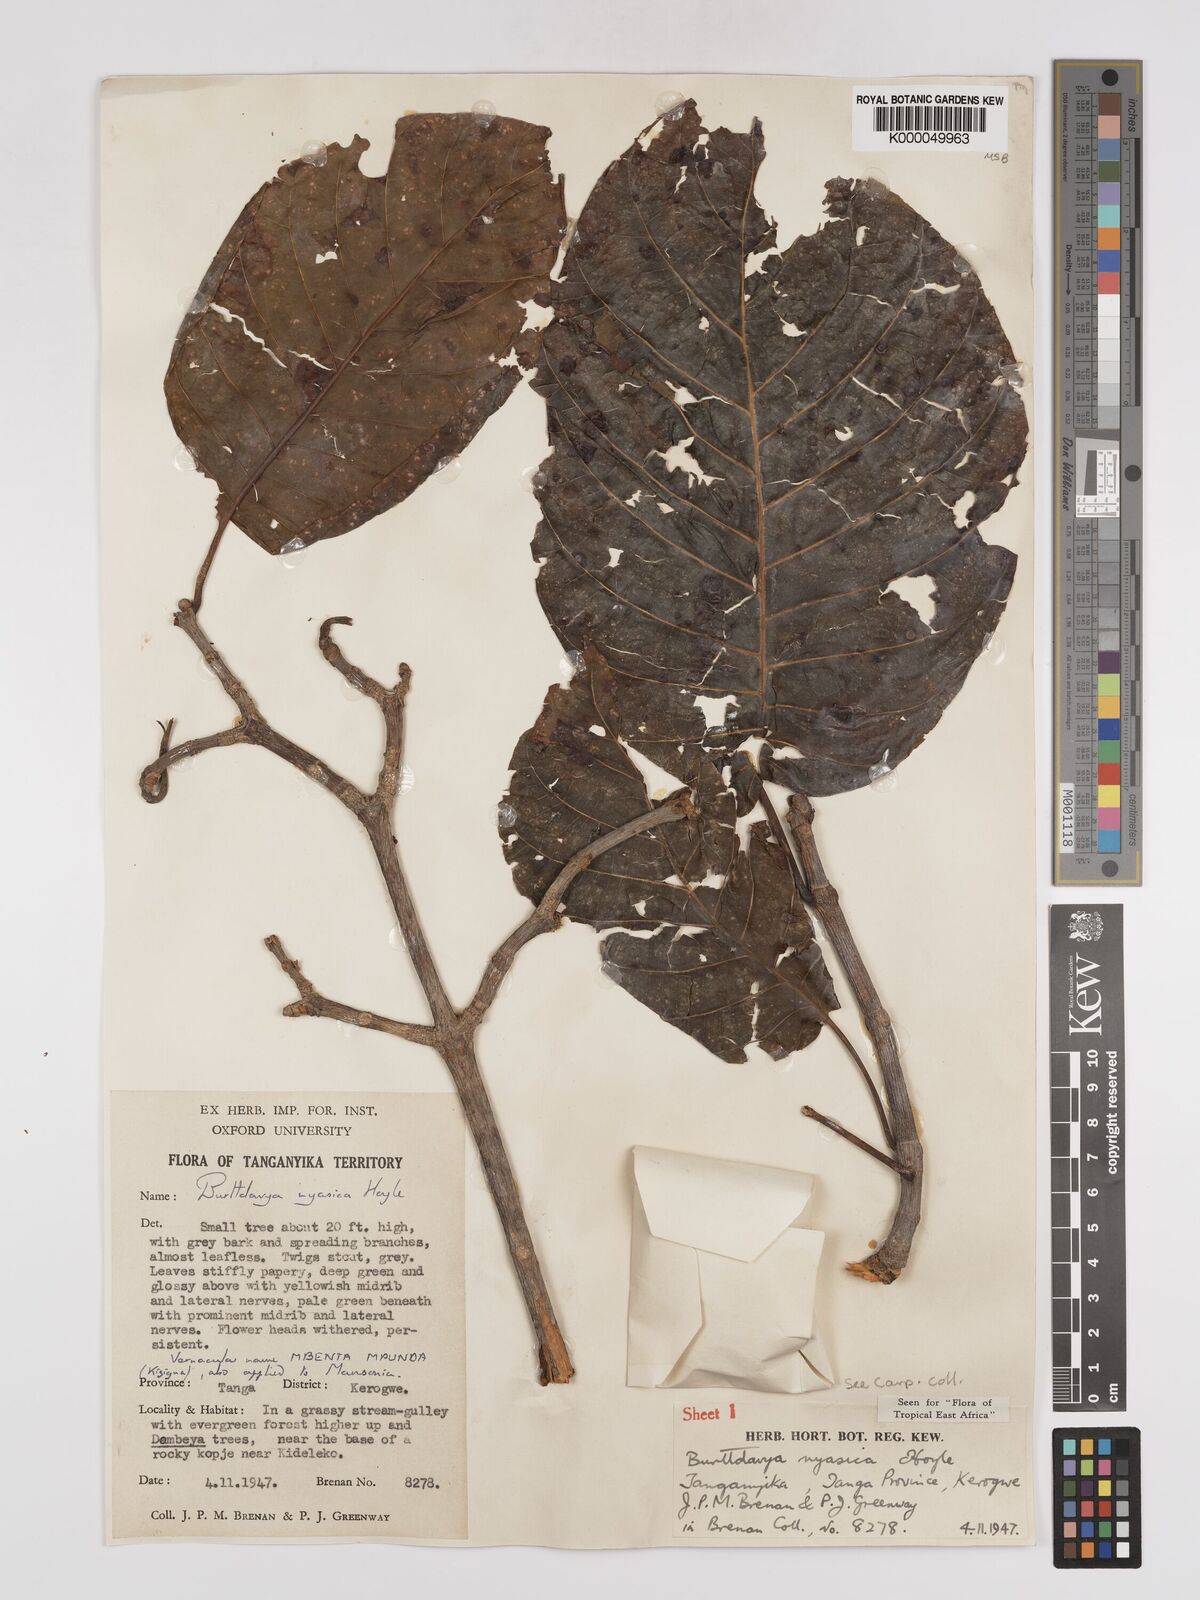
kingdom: Plantae
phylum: Tracheophyta
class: Magnoliopsida
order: Gentianales
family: Rubiaceae
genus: Nauclea
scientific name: Nauclea
